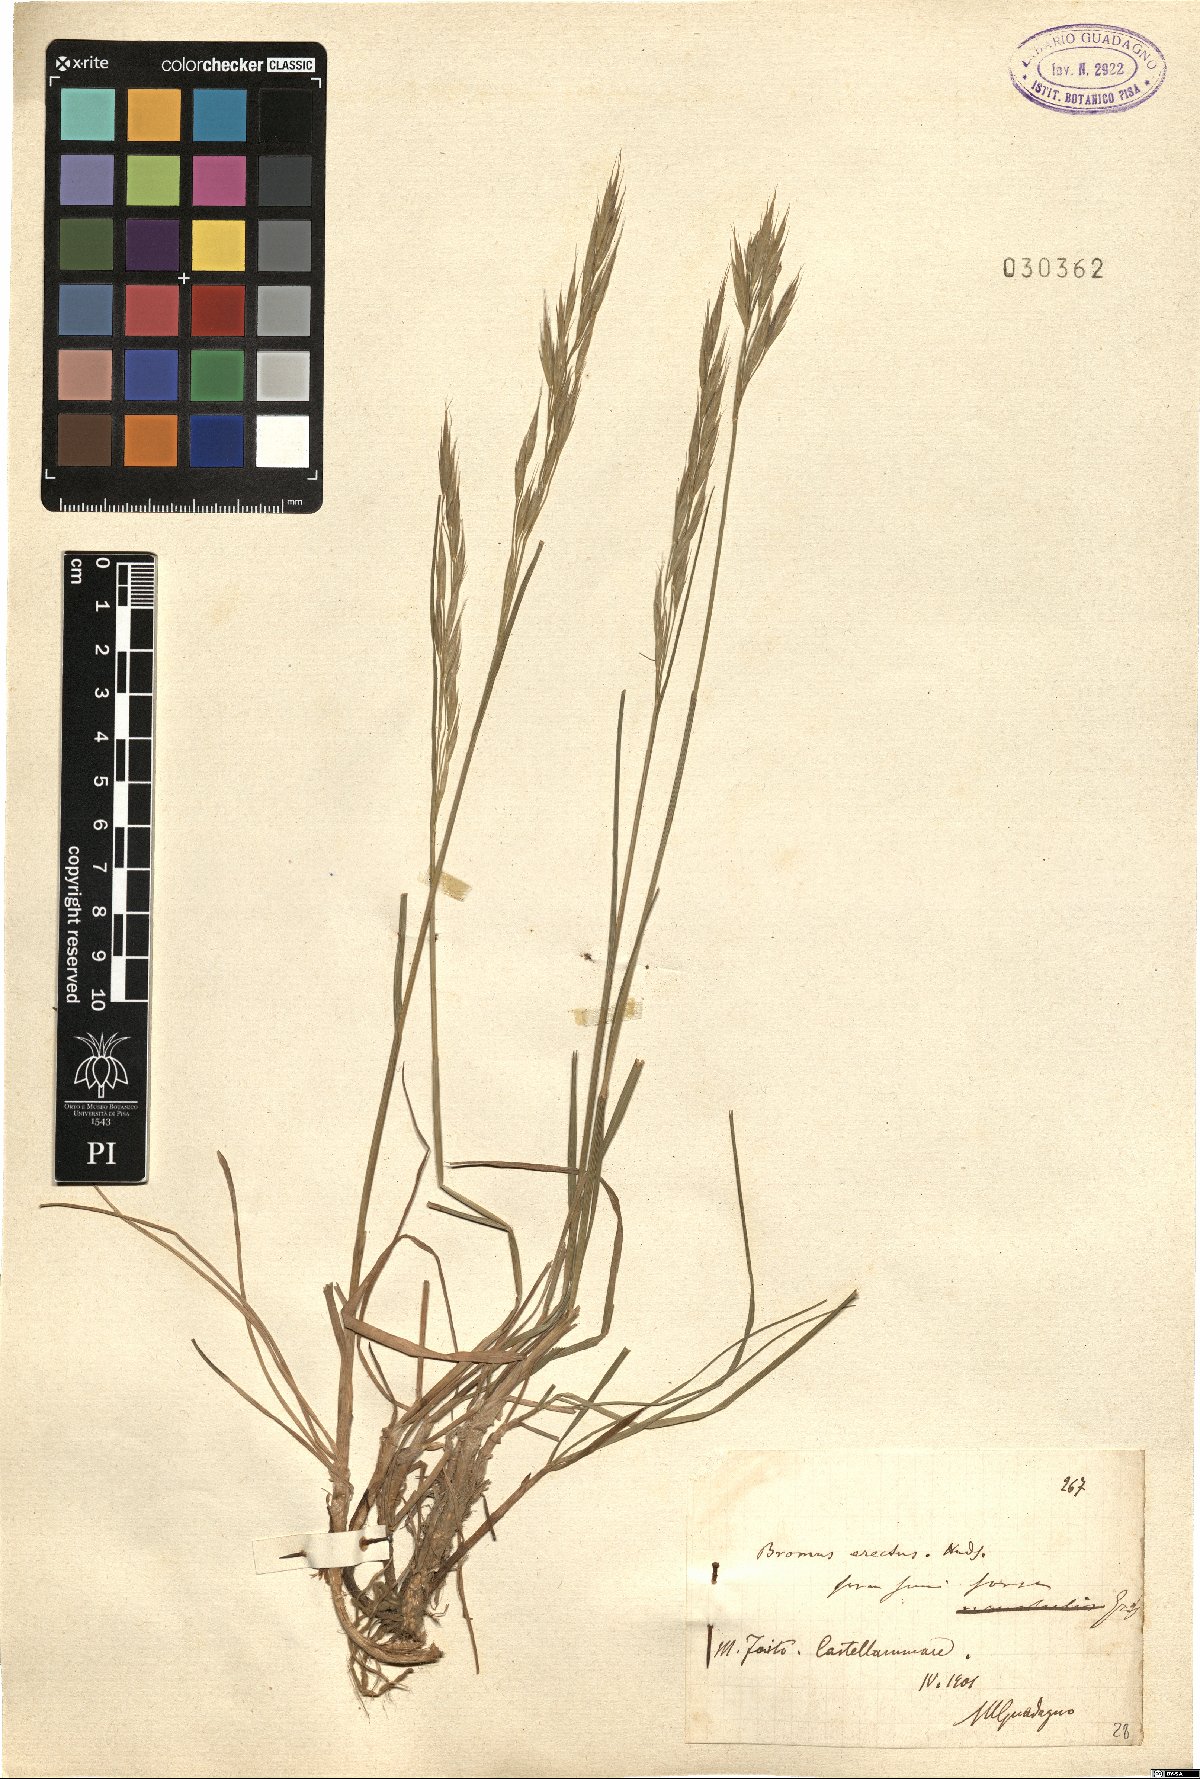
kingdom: Plantae
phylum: Tracheophyta
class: Liliopsida
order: Poales
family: Poaceae
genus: Bromus
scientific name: Bromus erectus
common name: Erect brome
